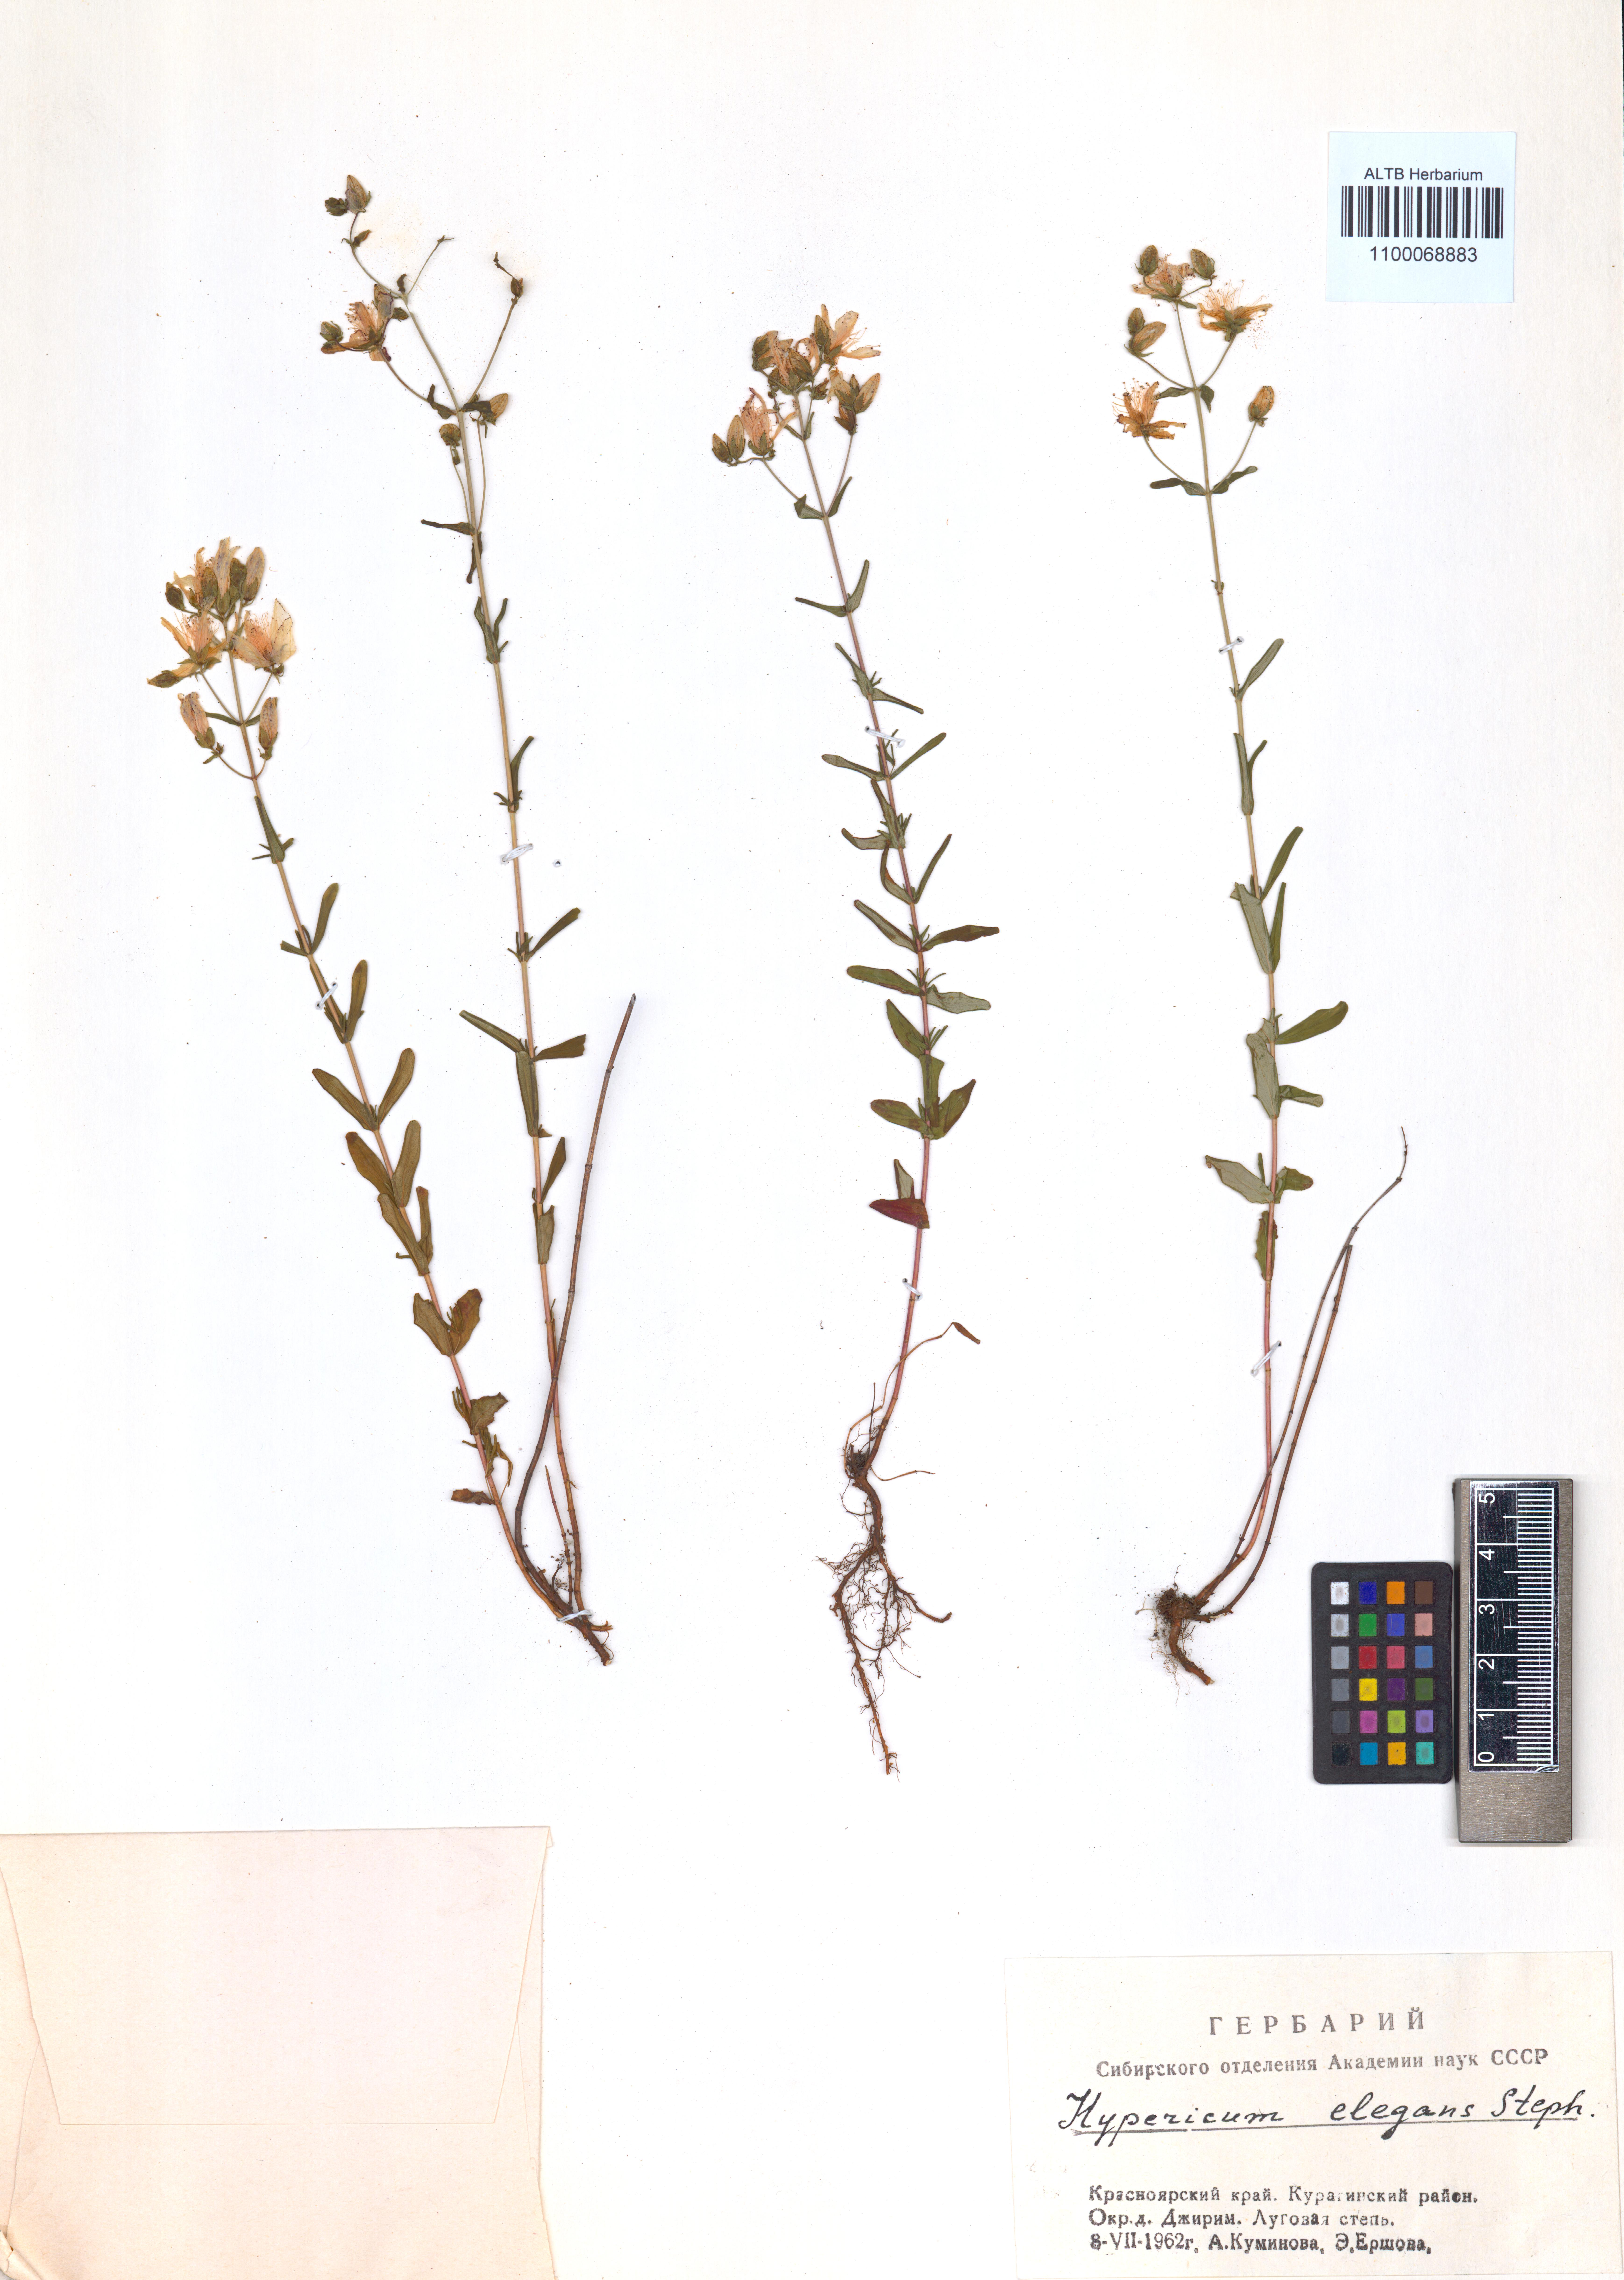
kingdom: Plantae
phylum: Tracheophyta
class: Magnoliopsida
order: Malpighiales
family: Hypericaceae
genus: Hypericum
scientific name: Hypericum elegans
